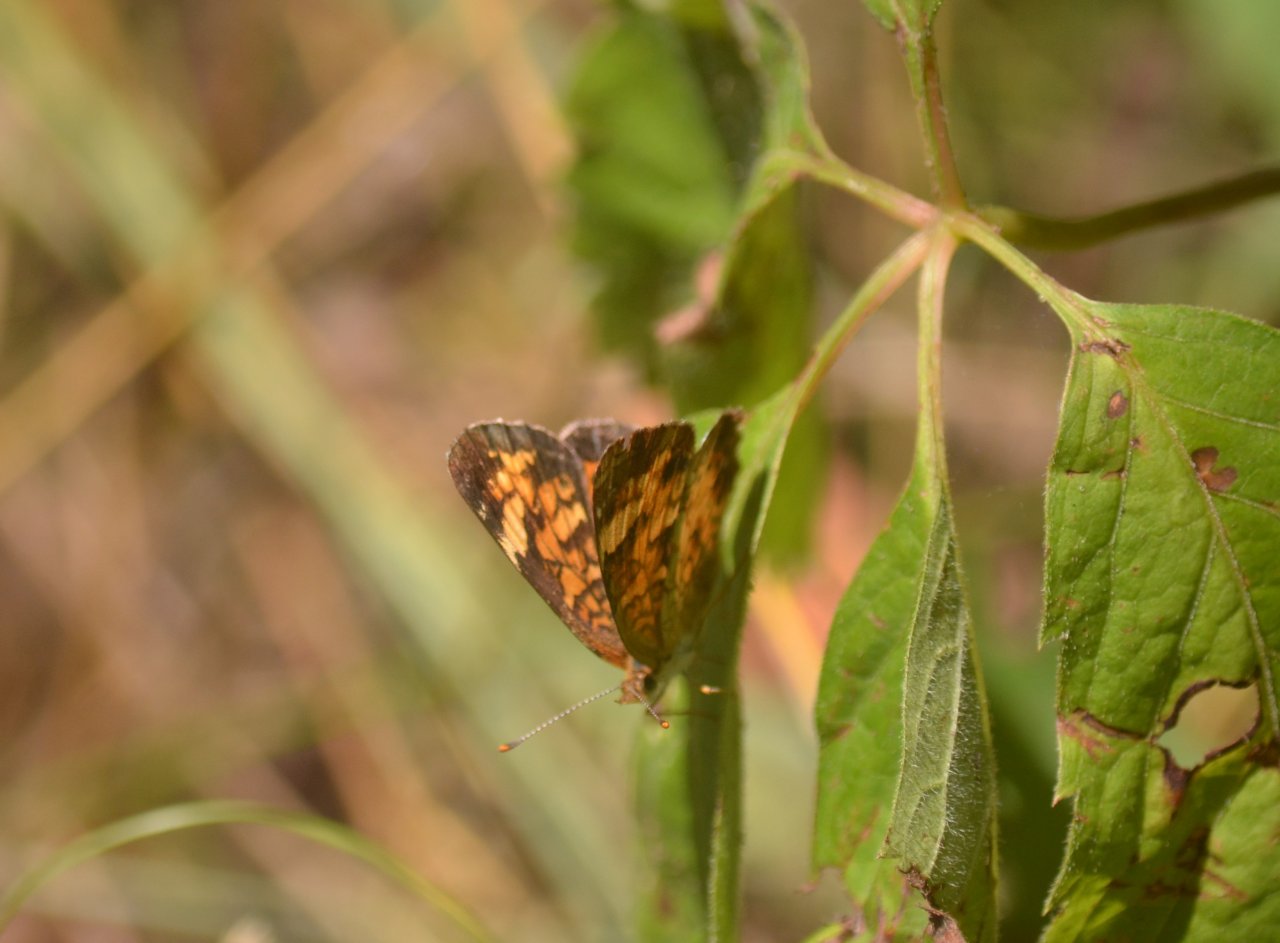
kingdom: Animalia
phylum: Arthropoda
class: Insecta
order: Lepidoptera
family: Nymphalidae
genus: Phyciodes
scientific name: Phyciodes tharos
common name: Northern Crescent
